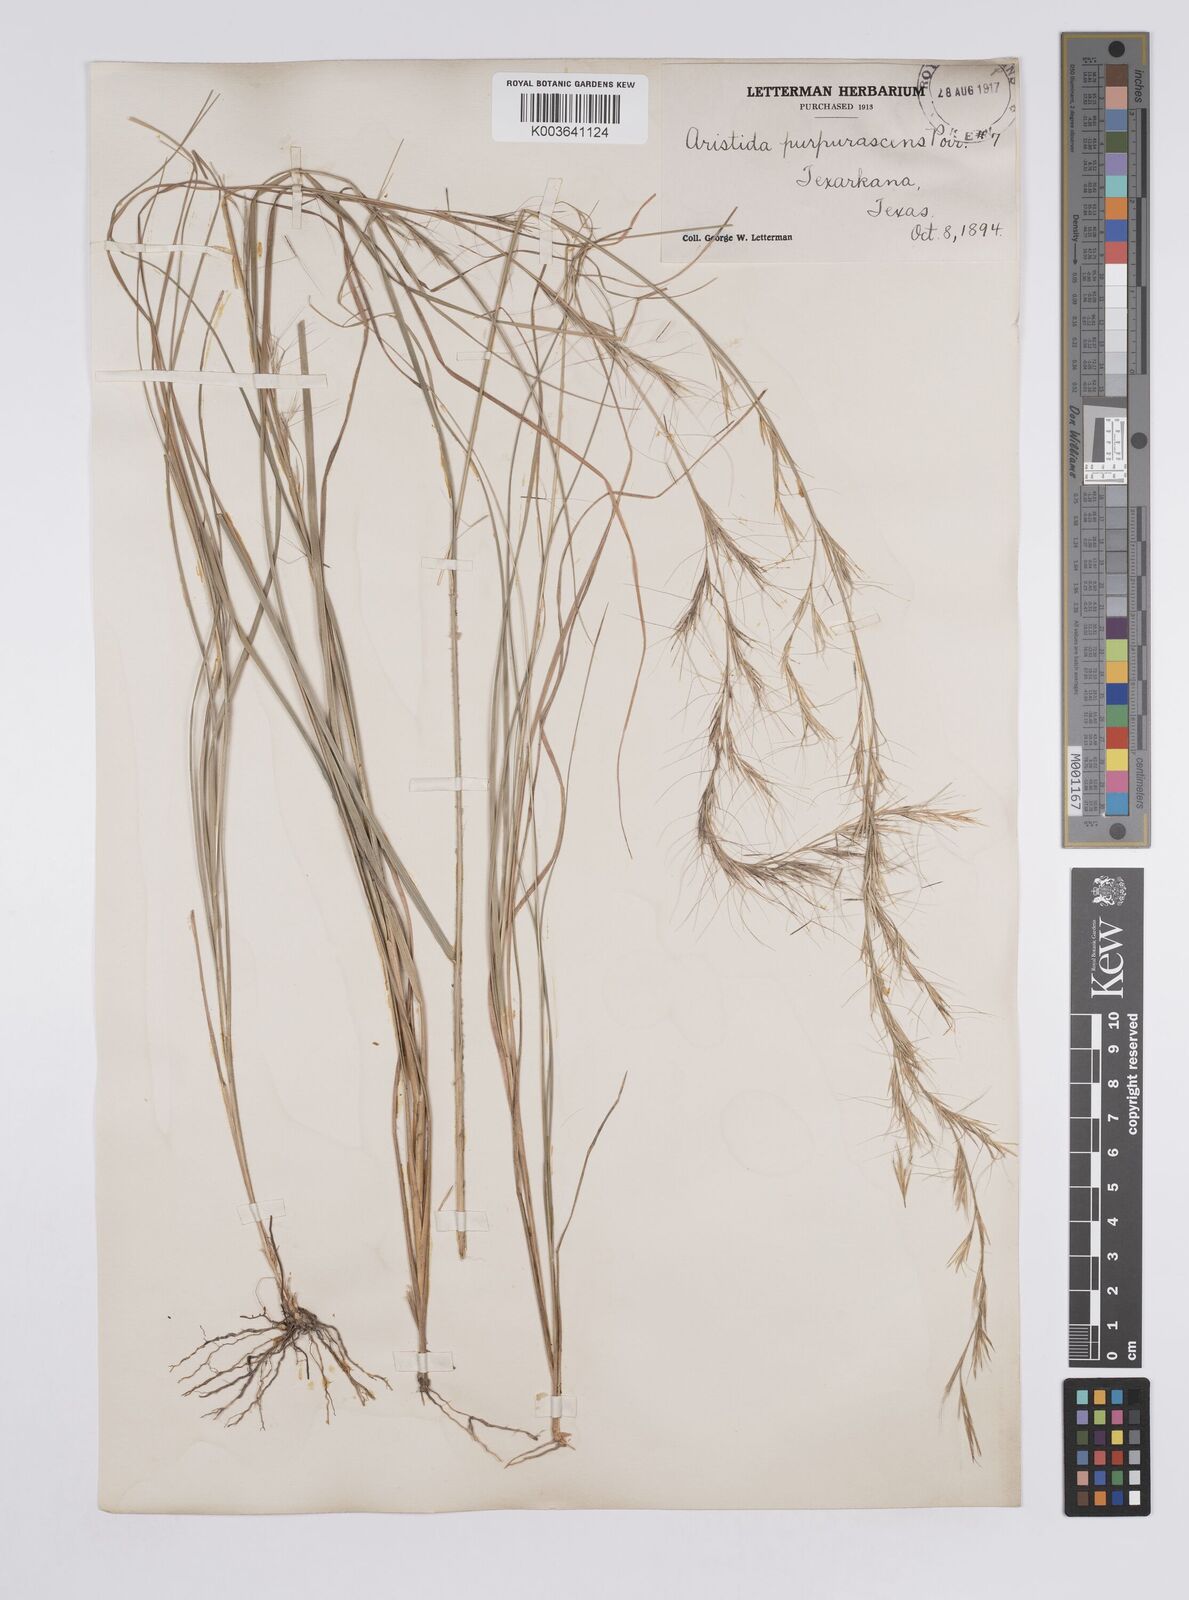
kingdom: Plantae
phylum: Tracheophyta
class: Liliopsida
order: Poales
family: Poaceae
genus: Aristida
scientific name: Aristida purpurascens
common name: Arrow-feather
